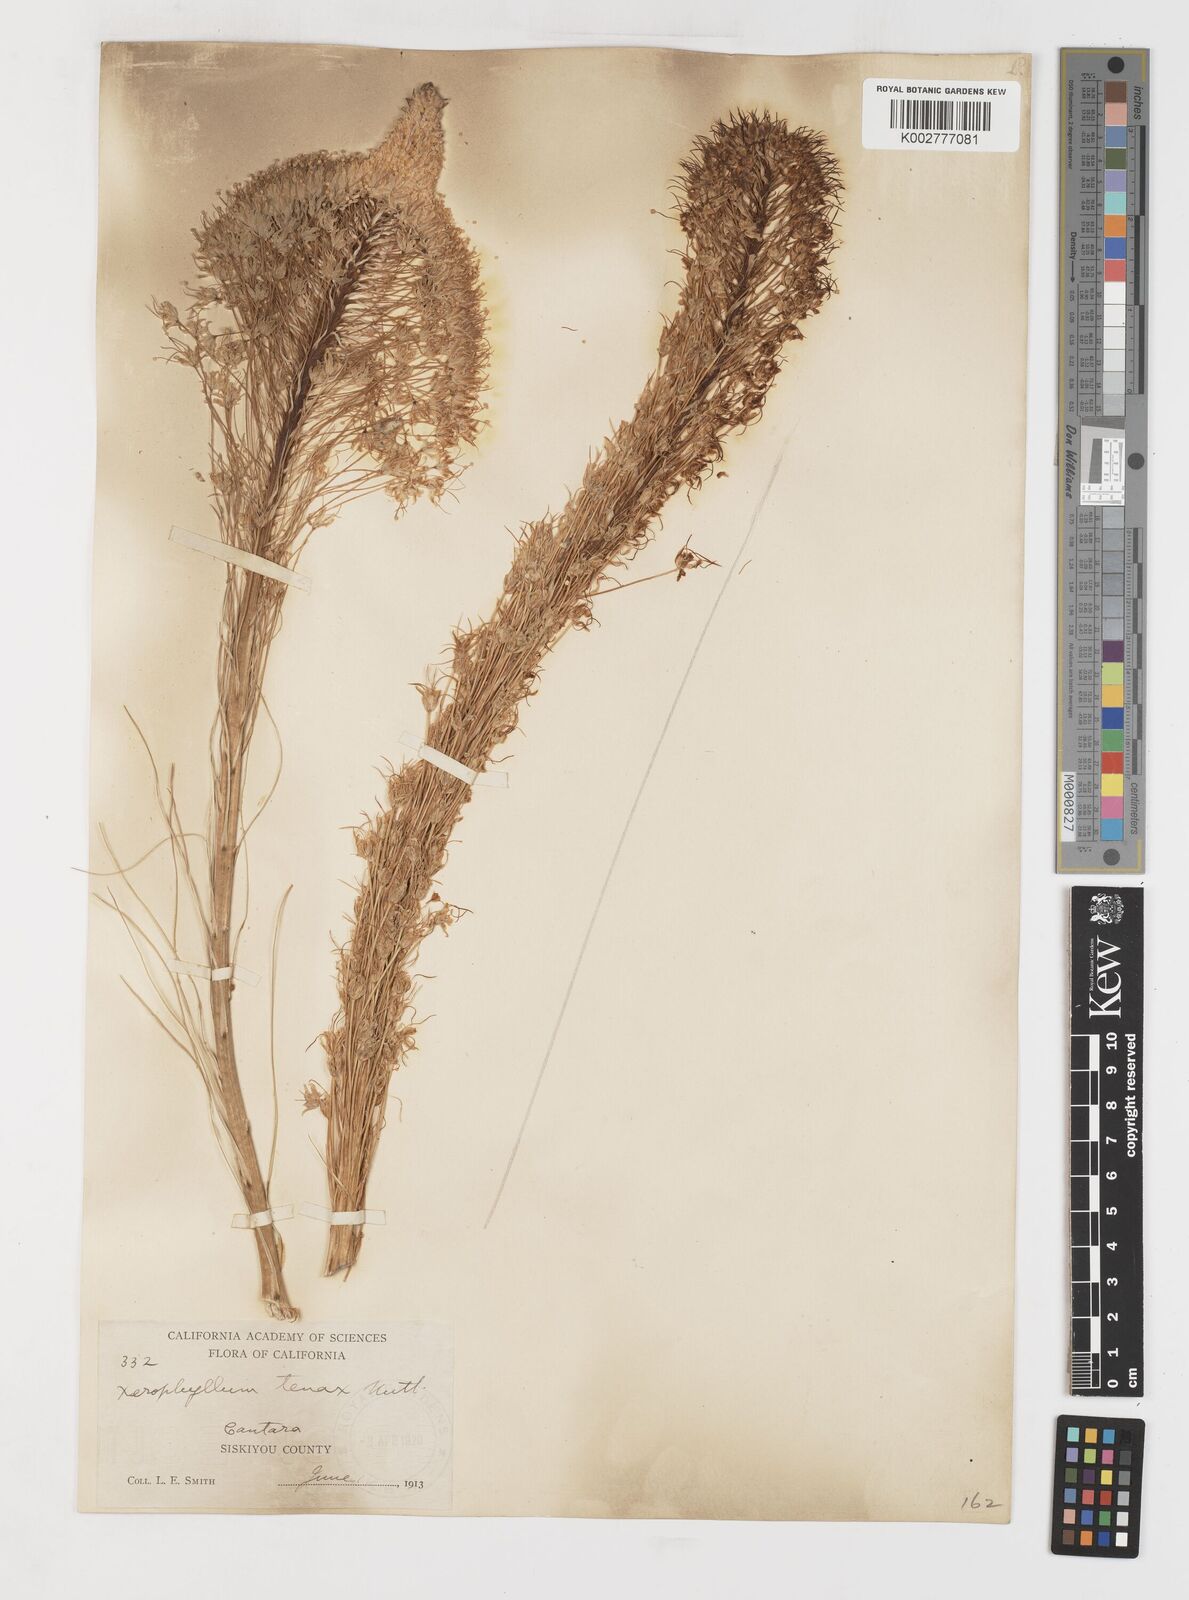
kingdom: Plantae
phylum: Tracheophyta
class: Liliopsida
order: Liliales
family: Melanthiaceae
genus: Xerophyllum
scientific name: Xerophyllum tenax
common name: Bear-grass
